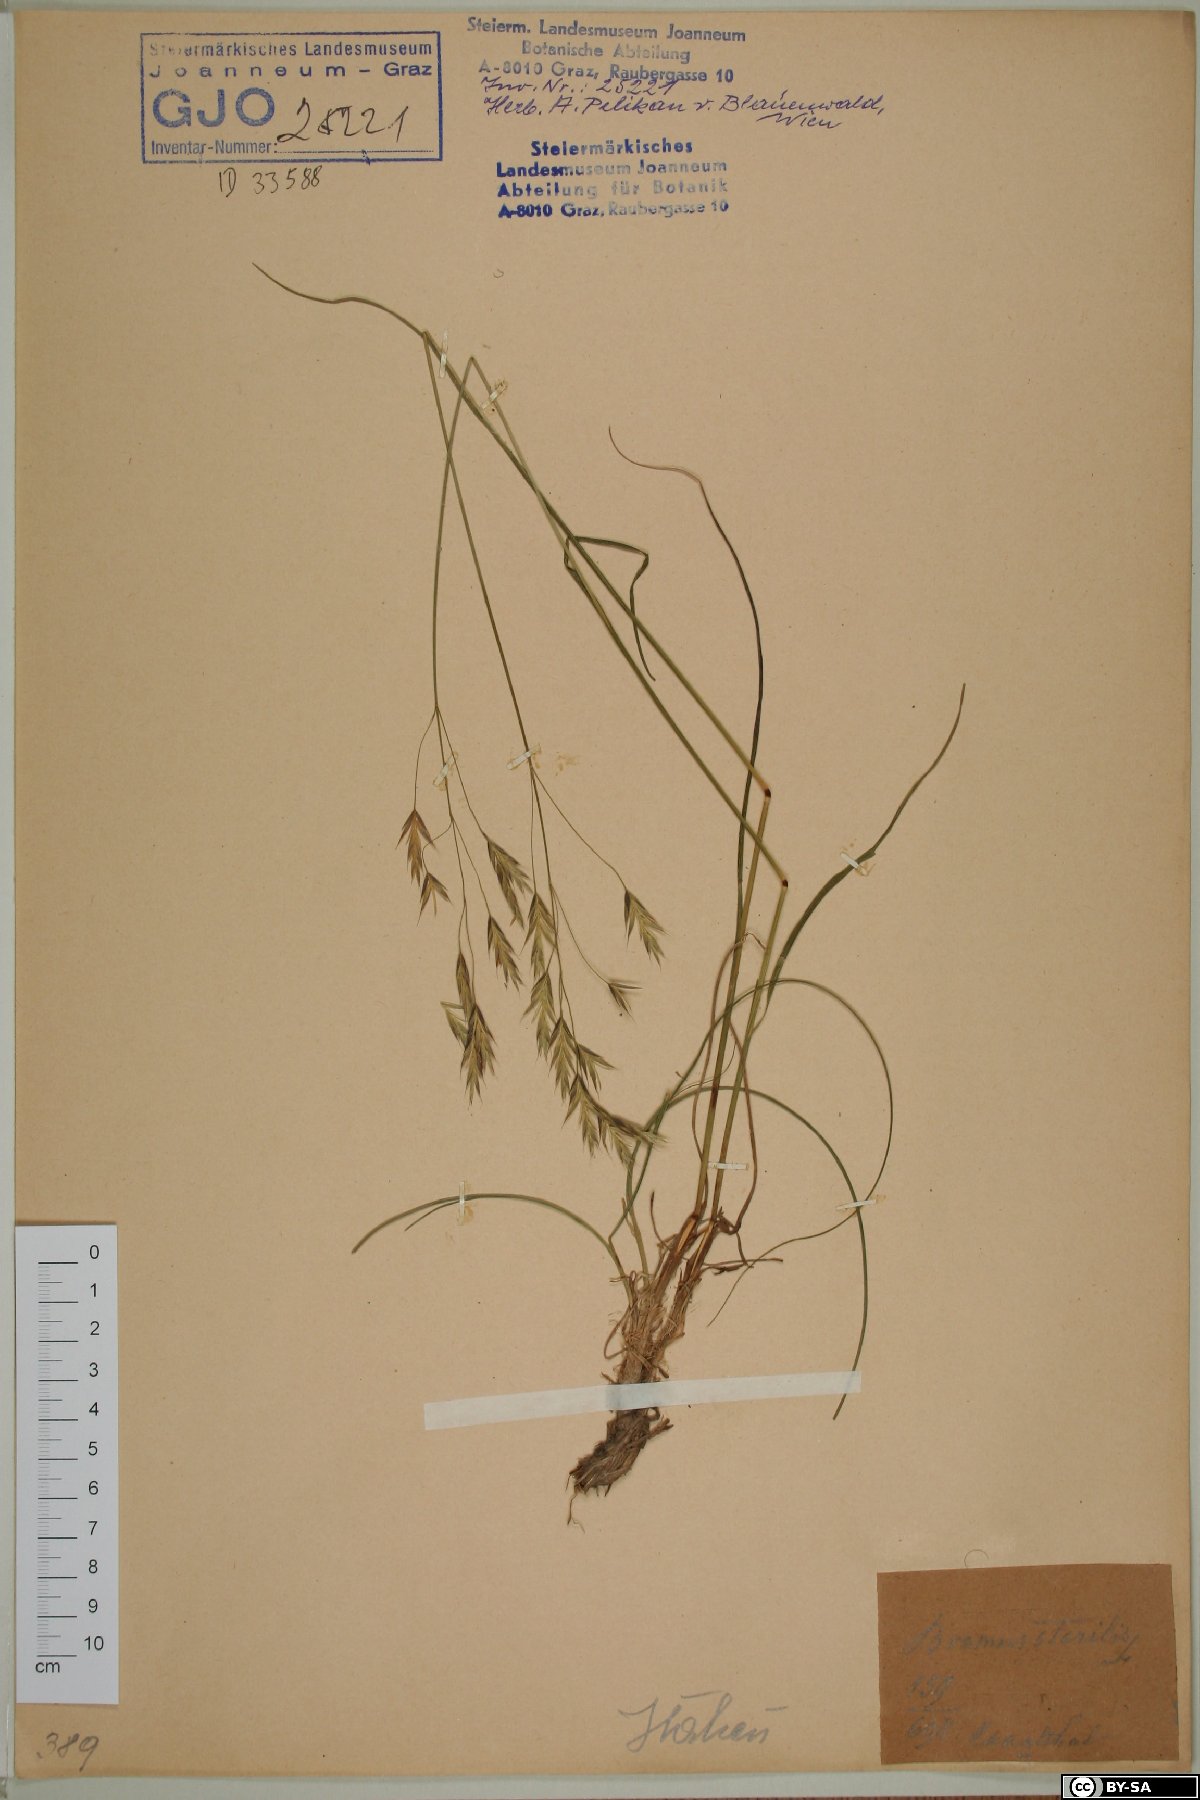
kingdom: Plantae
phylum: Tracheophyta
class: Liliopsida
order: Poales
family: Poaceae
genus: Bromus
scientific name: Bromus sterilis
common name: Poverty brome
